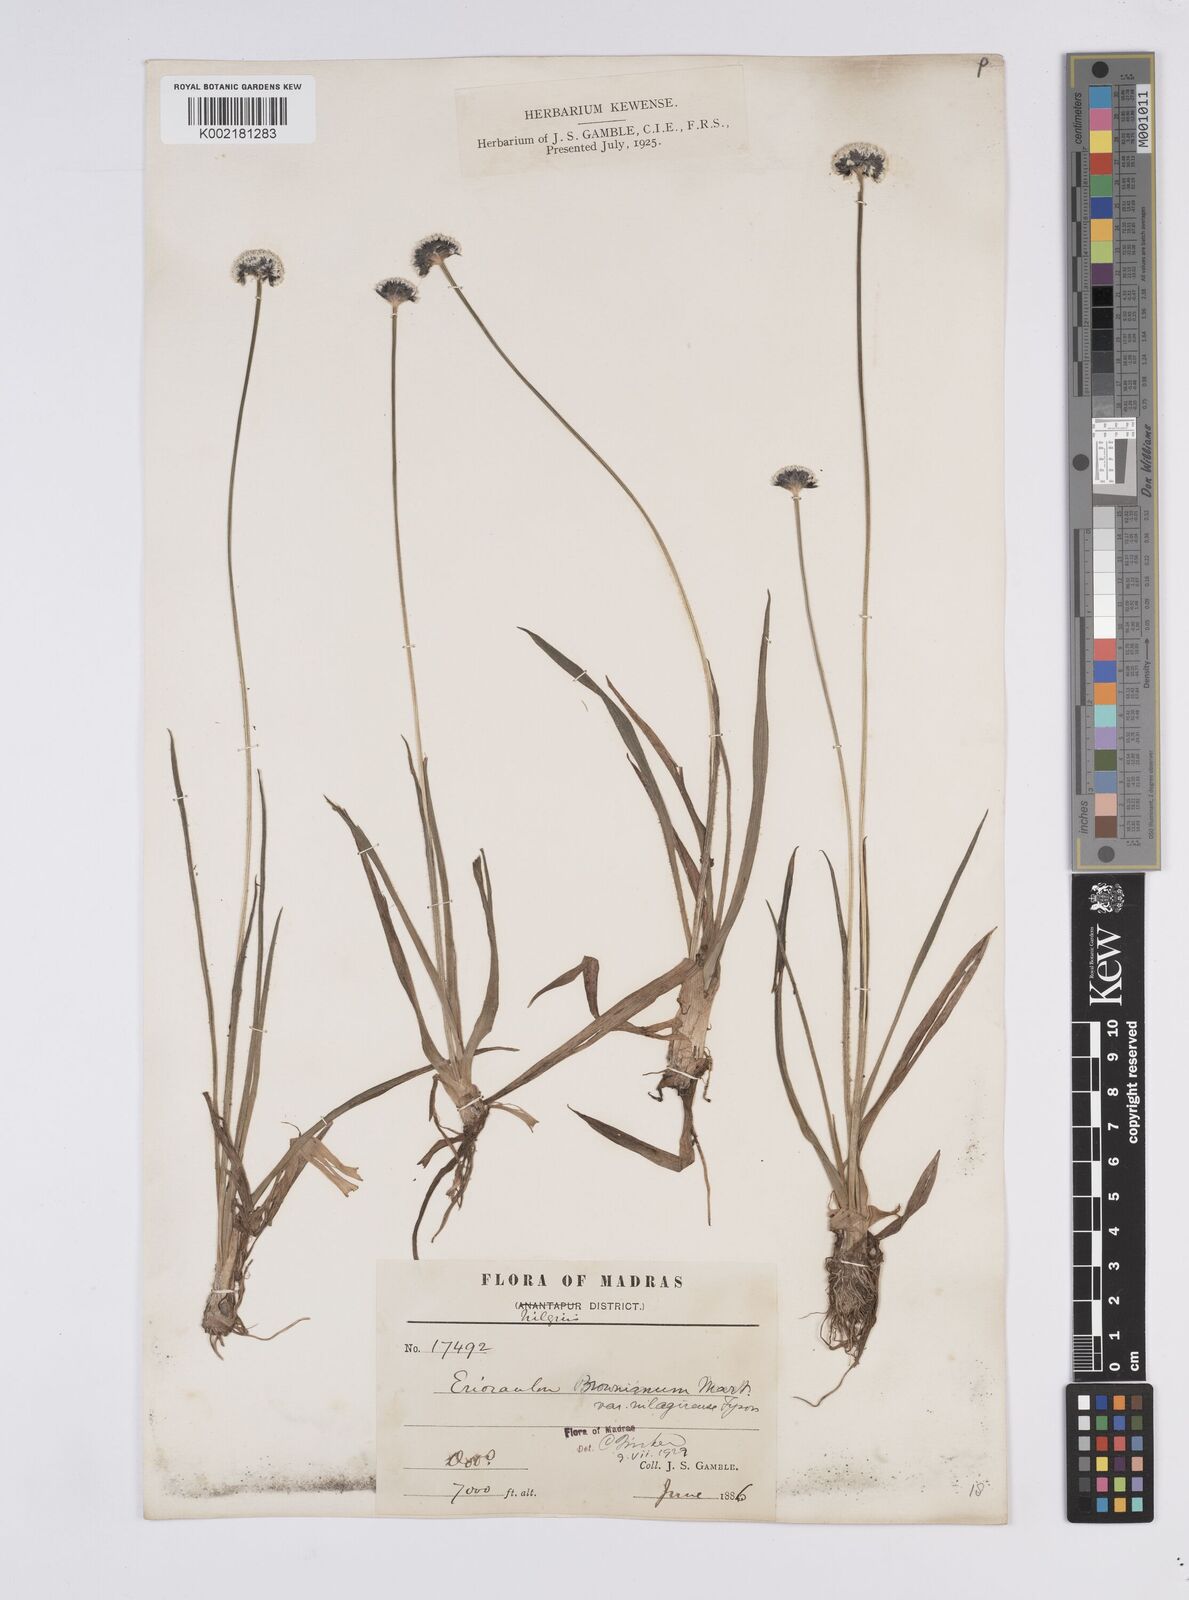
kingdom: Plantae
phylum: Tracheophyta
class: Liliopsida
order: Poales
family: Eriocaulaceae
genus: Eriocaulon
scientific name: Eriocaulon brownianum
